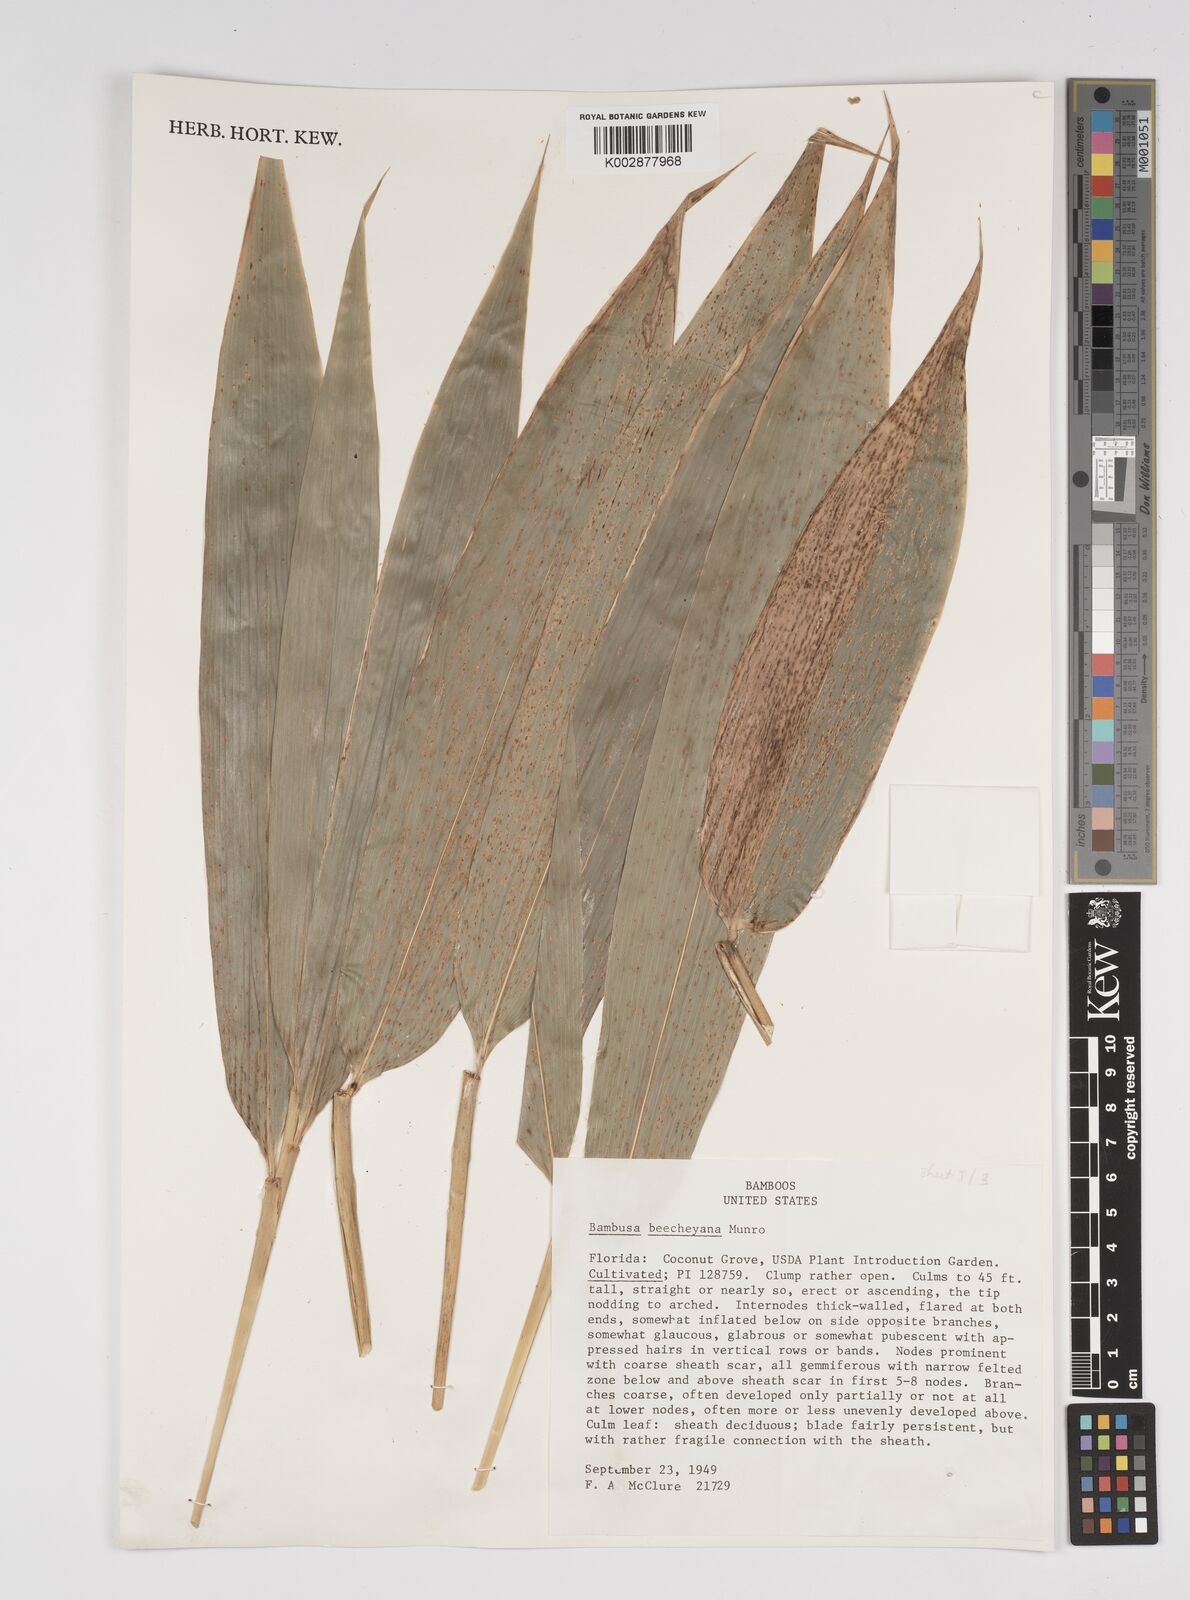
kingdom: Plantae
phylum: Tracheophyta
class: Liliopsida
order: Poales
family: Poaceae
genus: Bambusa
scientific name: Bambusa beecheyana
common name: Beechey's bamboo
